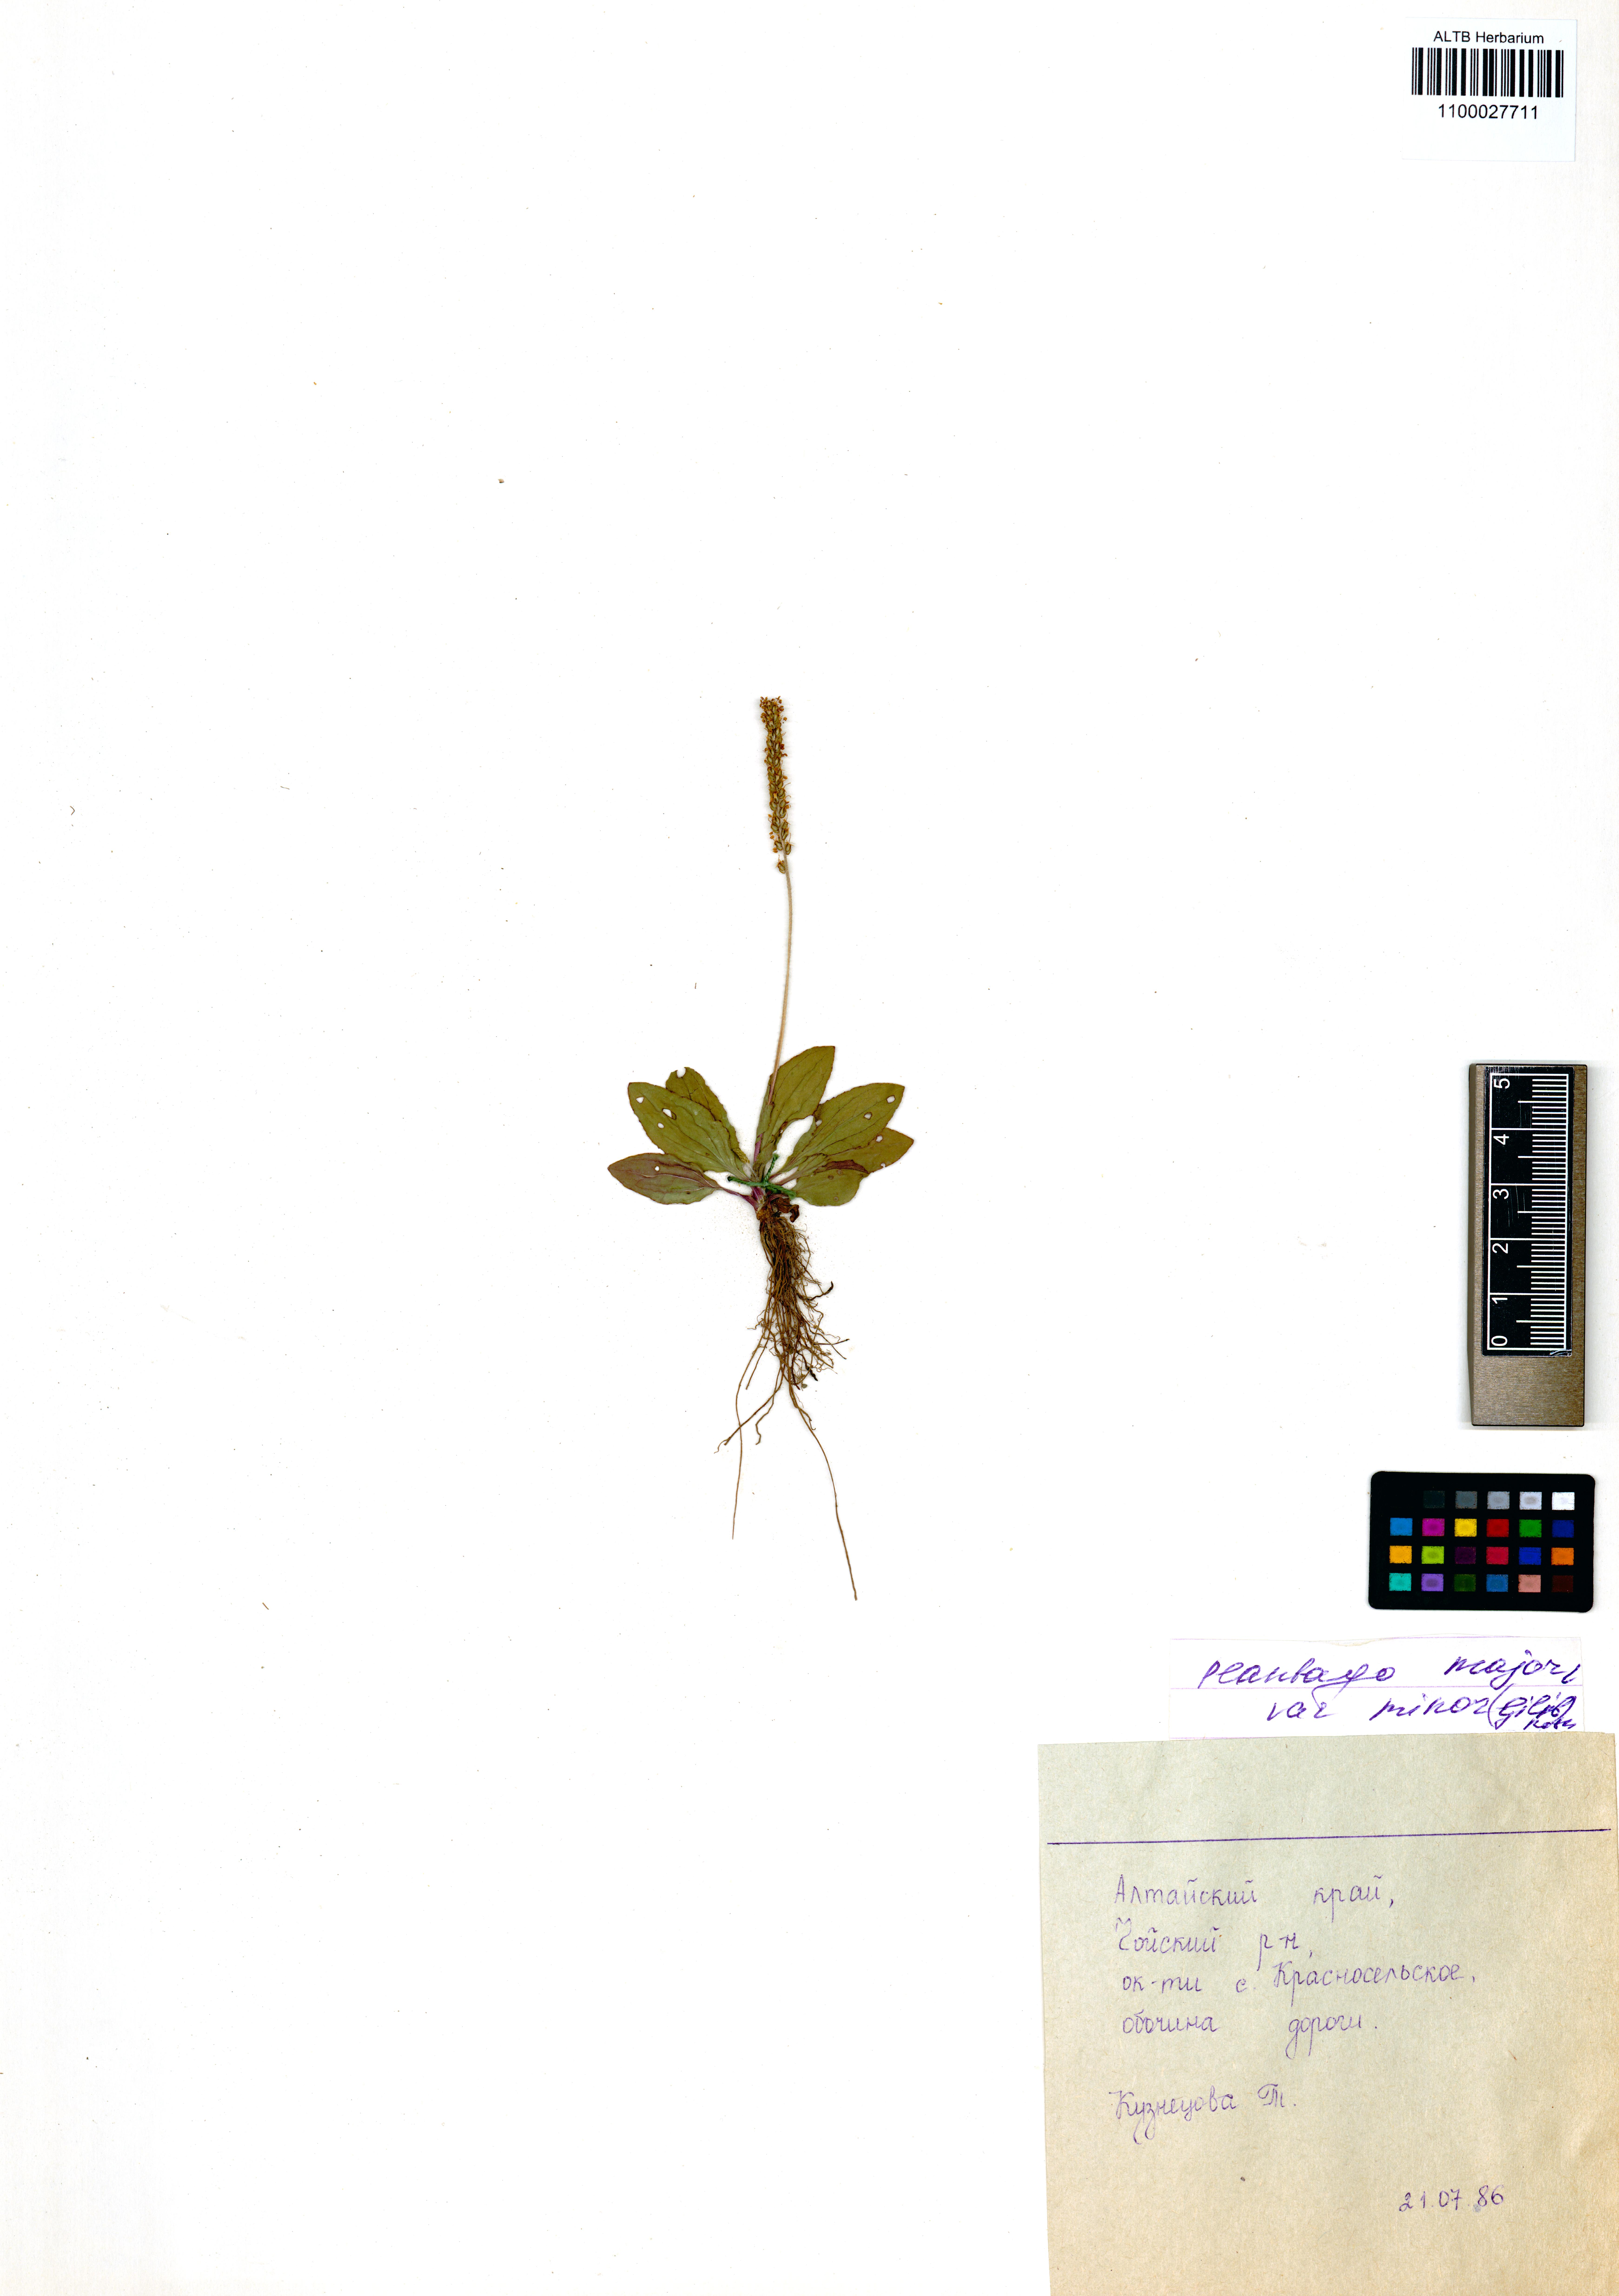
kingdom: Plantae
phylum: Tracheophyta
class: Magnoliopsida
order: Lamiales
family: Plantaginaceae
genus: Plantago
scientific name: Plantago major
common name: Common plantain
